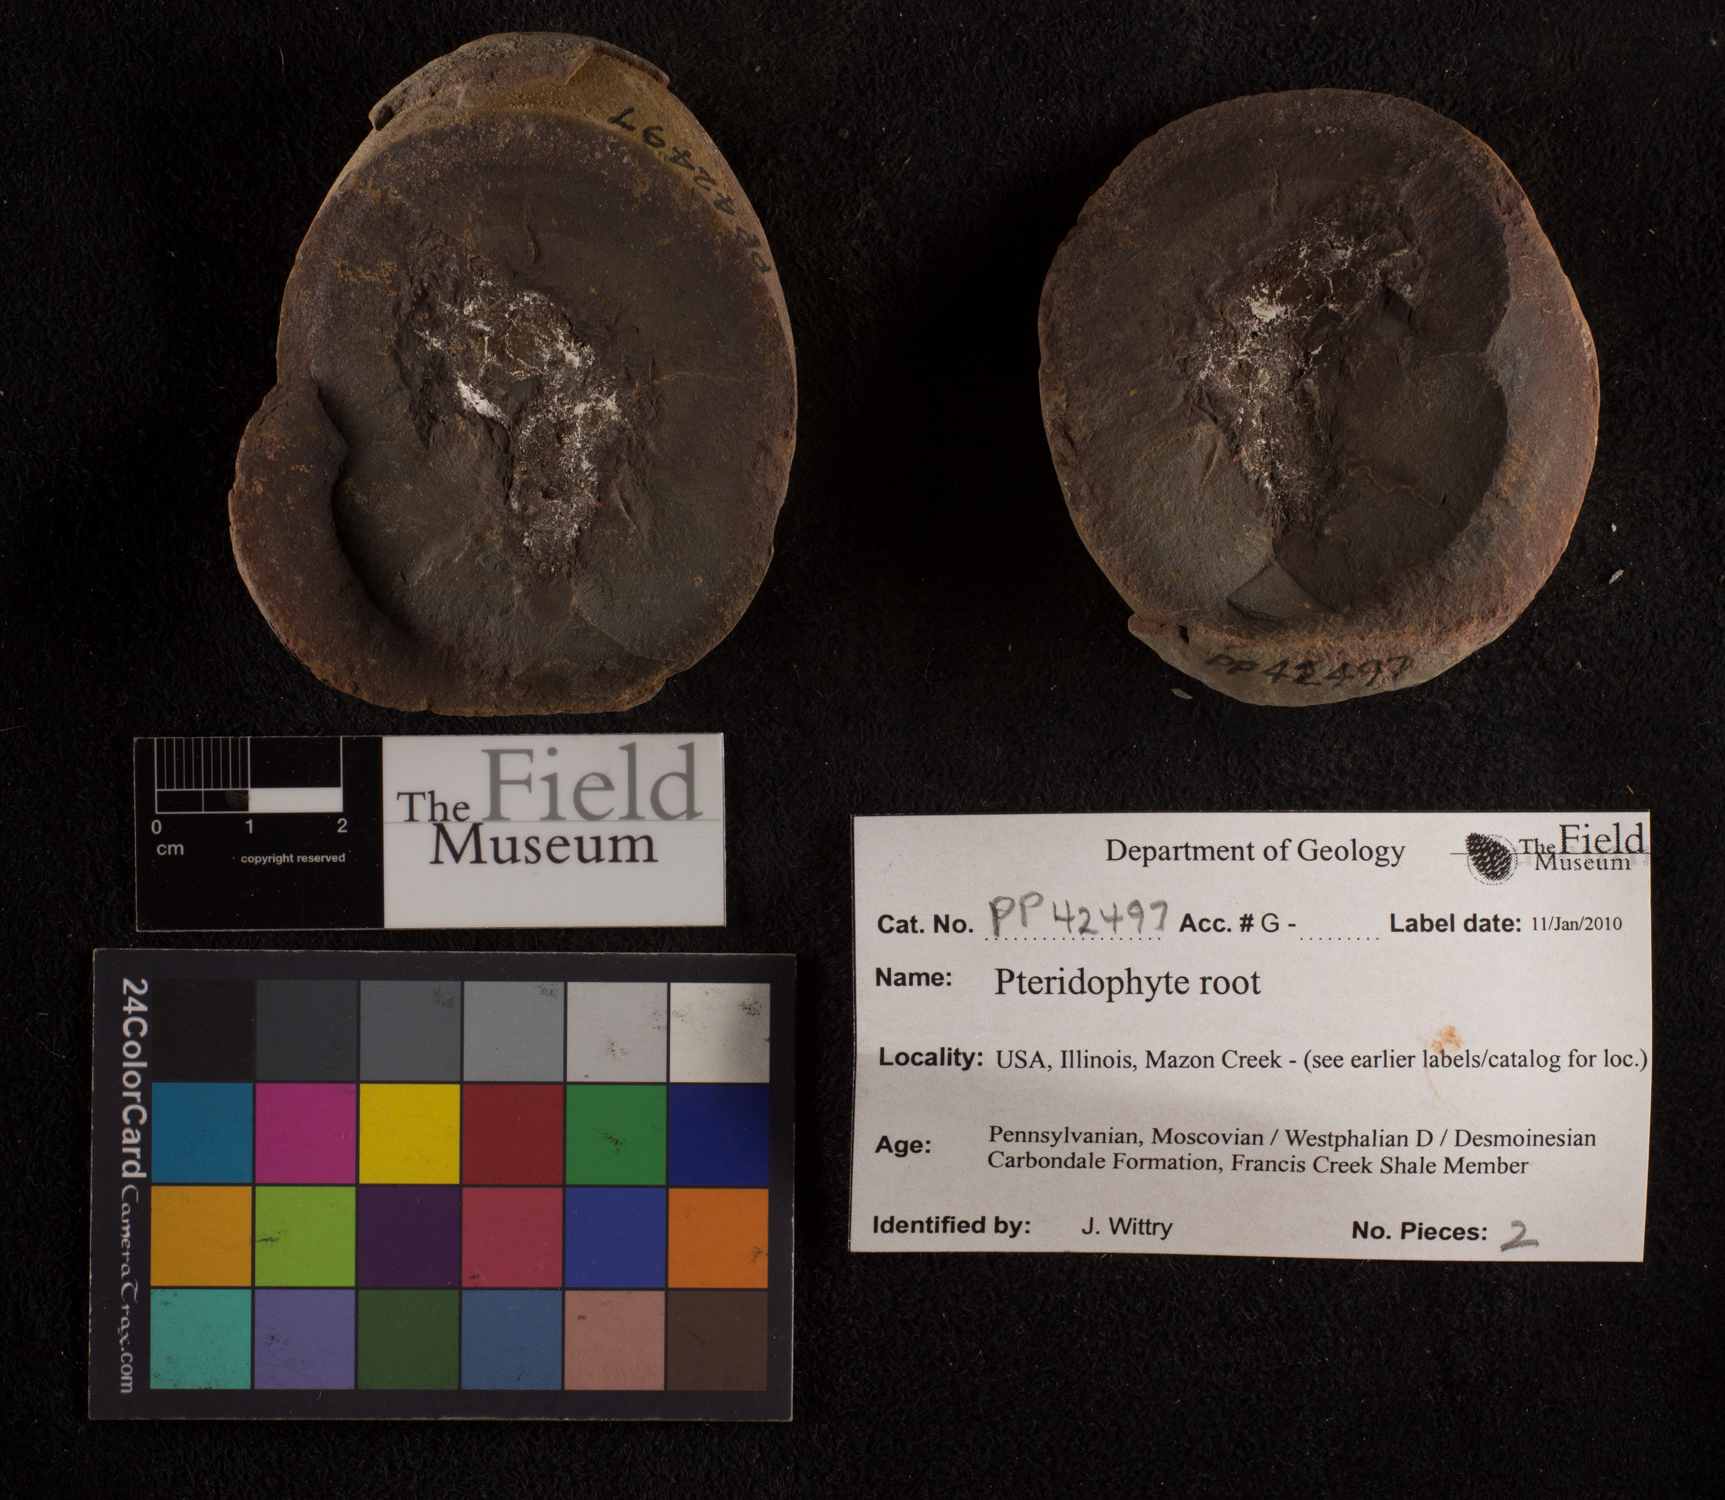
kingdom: Plantae
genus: Rhacophyllum
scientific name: Rhacophyllum
